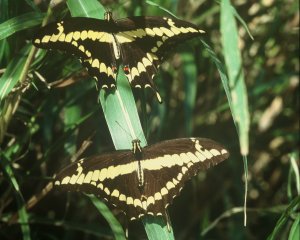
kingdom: Animalia
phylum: Arthropoda
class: Insecta
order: Lepidoptera
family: Papilionidae
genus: Papilio
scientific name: Papilio rumiko
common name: Western Giant Swallowtail
